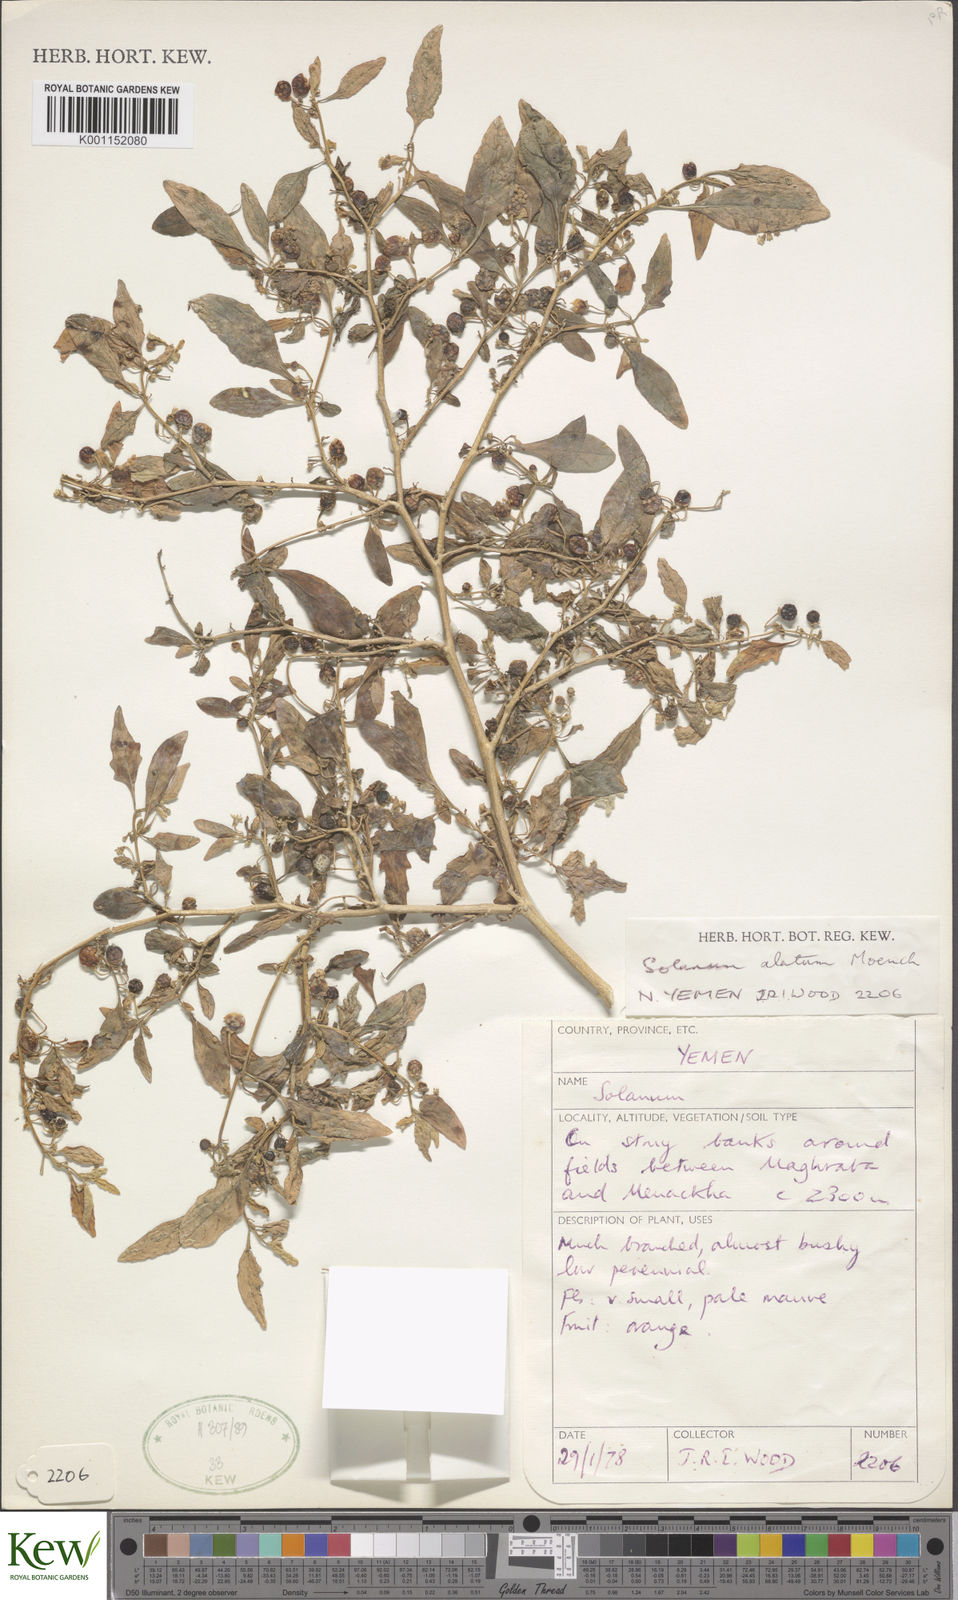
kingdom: Plantae
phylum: Tracheophyta
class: Magnoliopsida
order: Solanales
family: Solanaceae
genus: Solanum
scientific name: Solanum villosum
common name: Red nightshade
